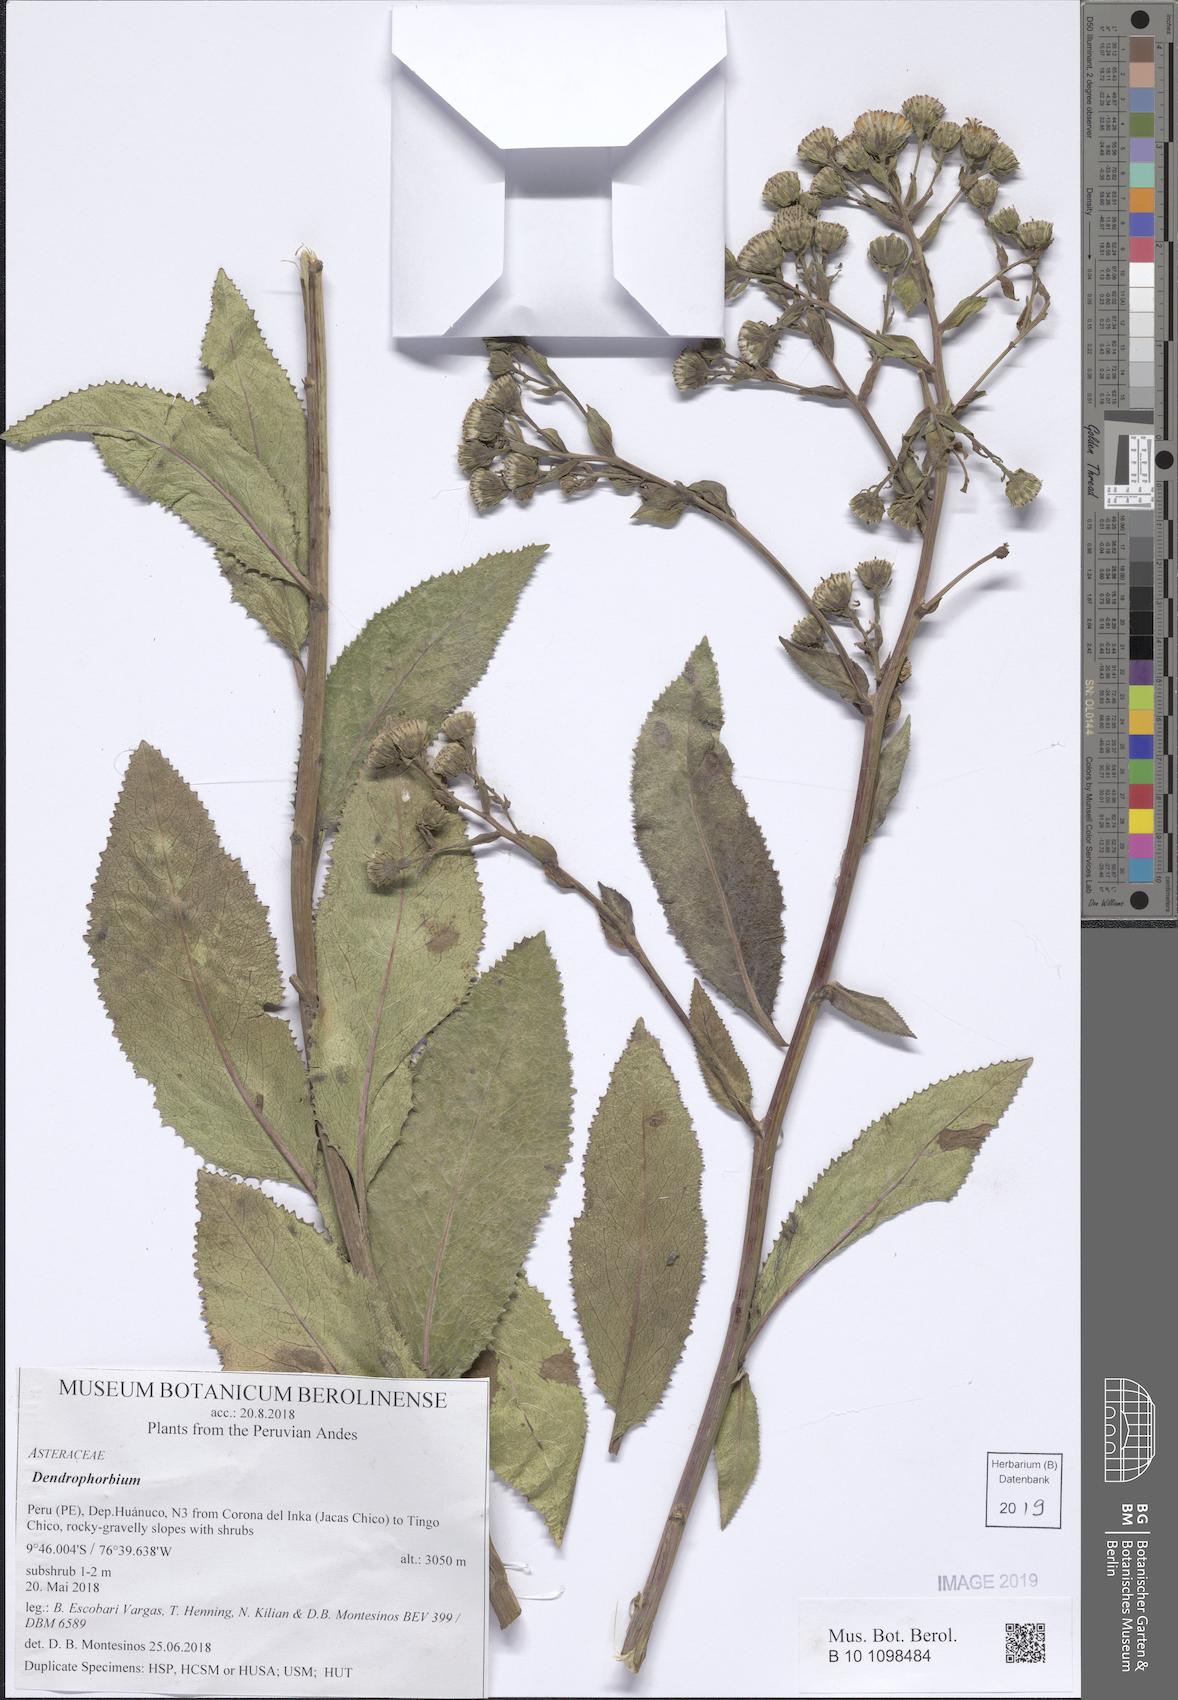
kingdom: Plantae
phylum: Tracheophyta
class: Magnoliopsida
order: Asterales
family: Asteraceae
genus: Dendrophorbium
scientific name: Dendrophorbium elatum
